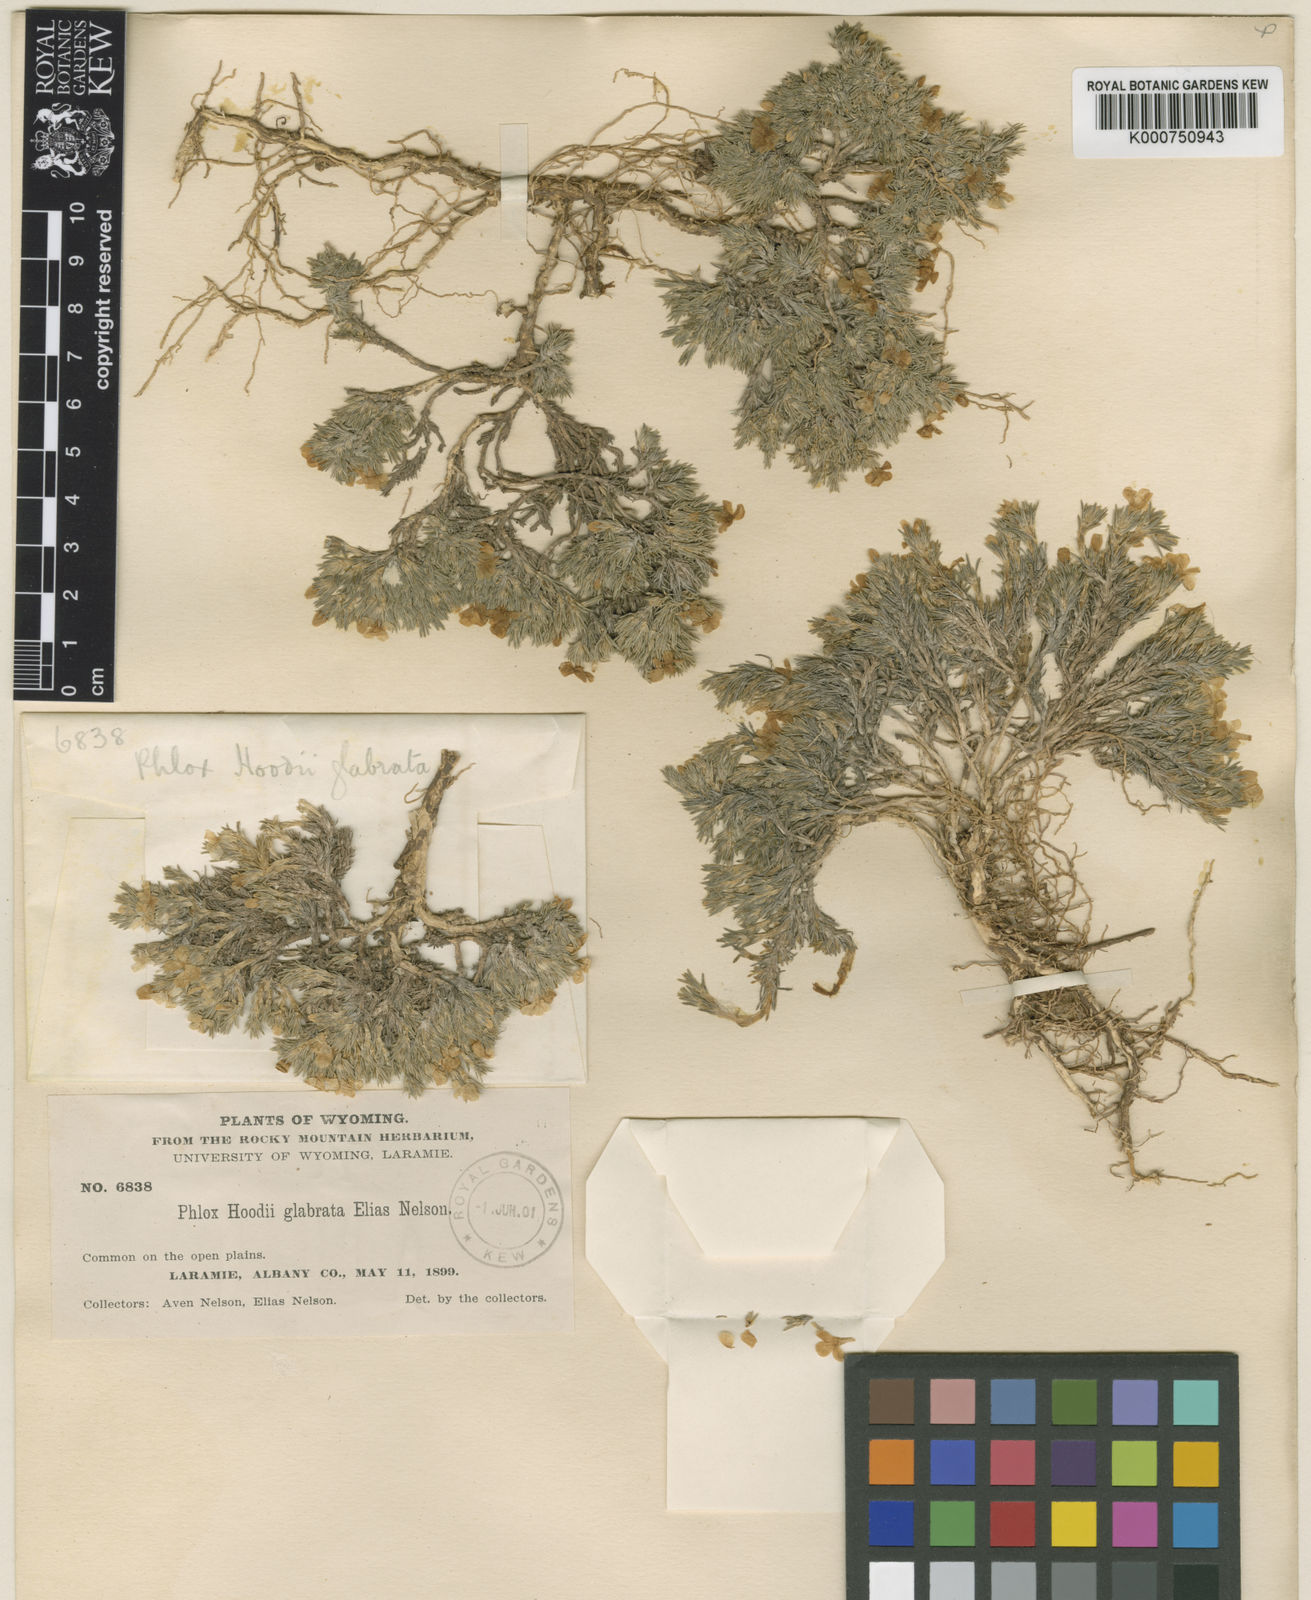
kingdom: Plantae
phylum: Tracheophyta
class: Magnoliopsida
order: Ericales
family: Polemoniaceae
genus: Phlox
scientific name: Phlox hoodii
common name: Moss phlox
